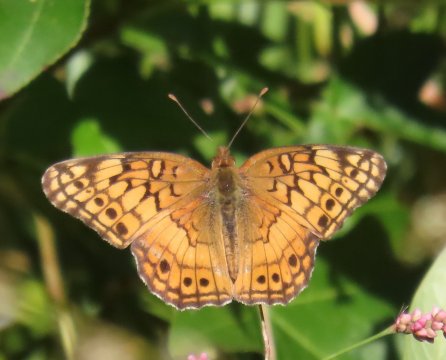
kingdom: Animalia
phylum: Arthropoda
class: Insecta
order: Lepidoptera
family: Nymphalidae
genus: Euptoieta
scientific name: Euptoieta claudia
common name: Variegated Fritillary
